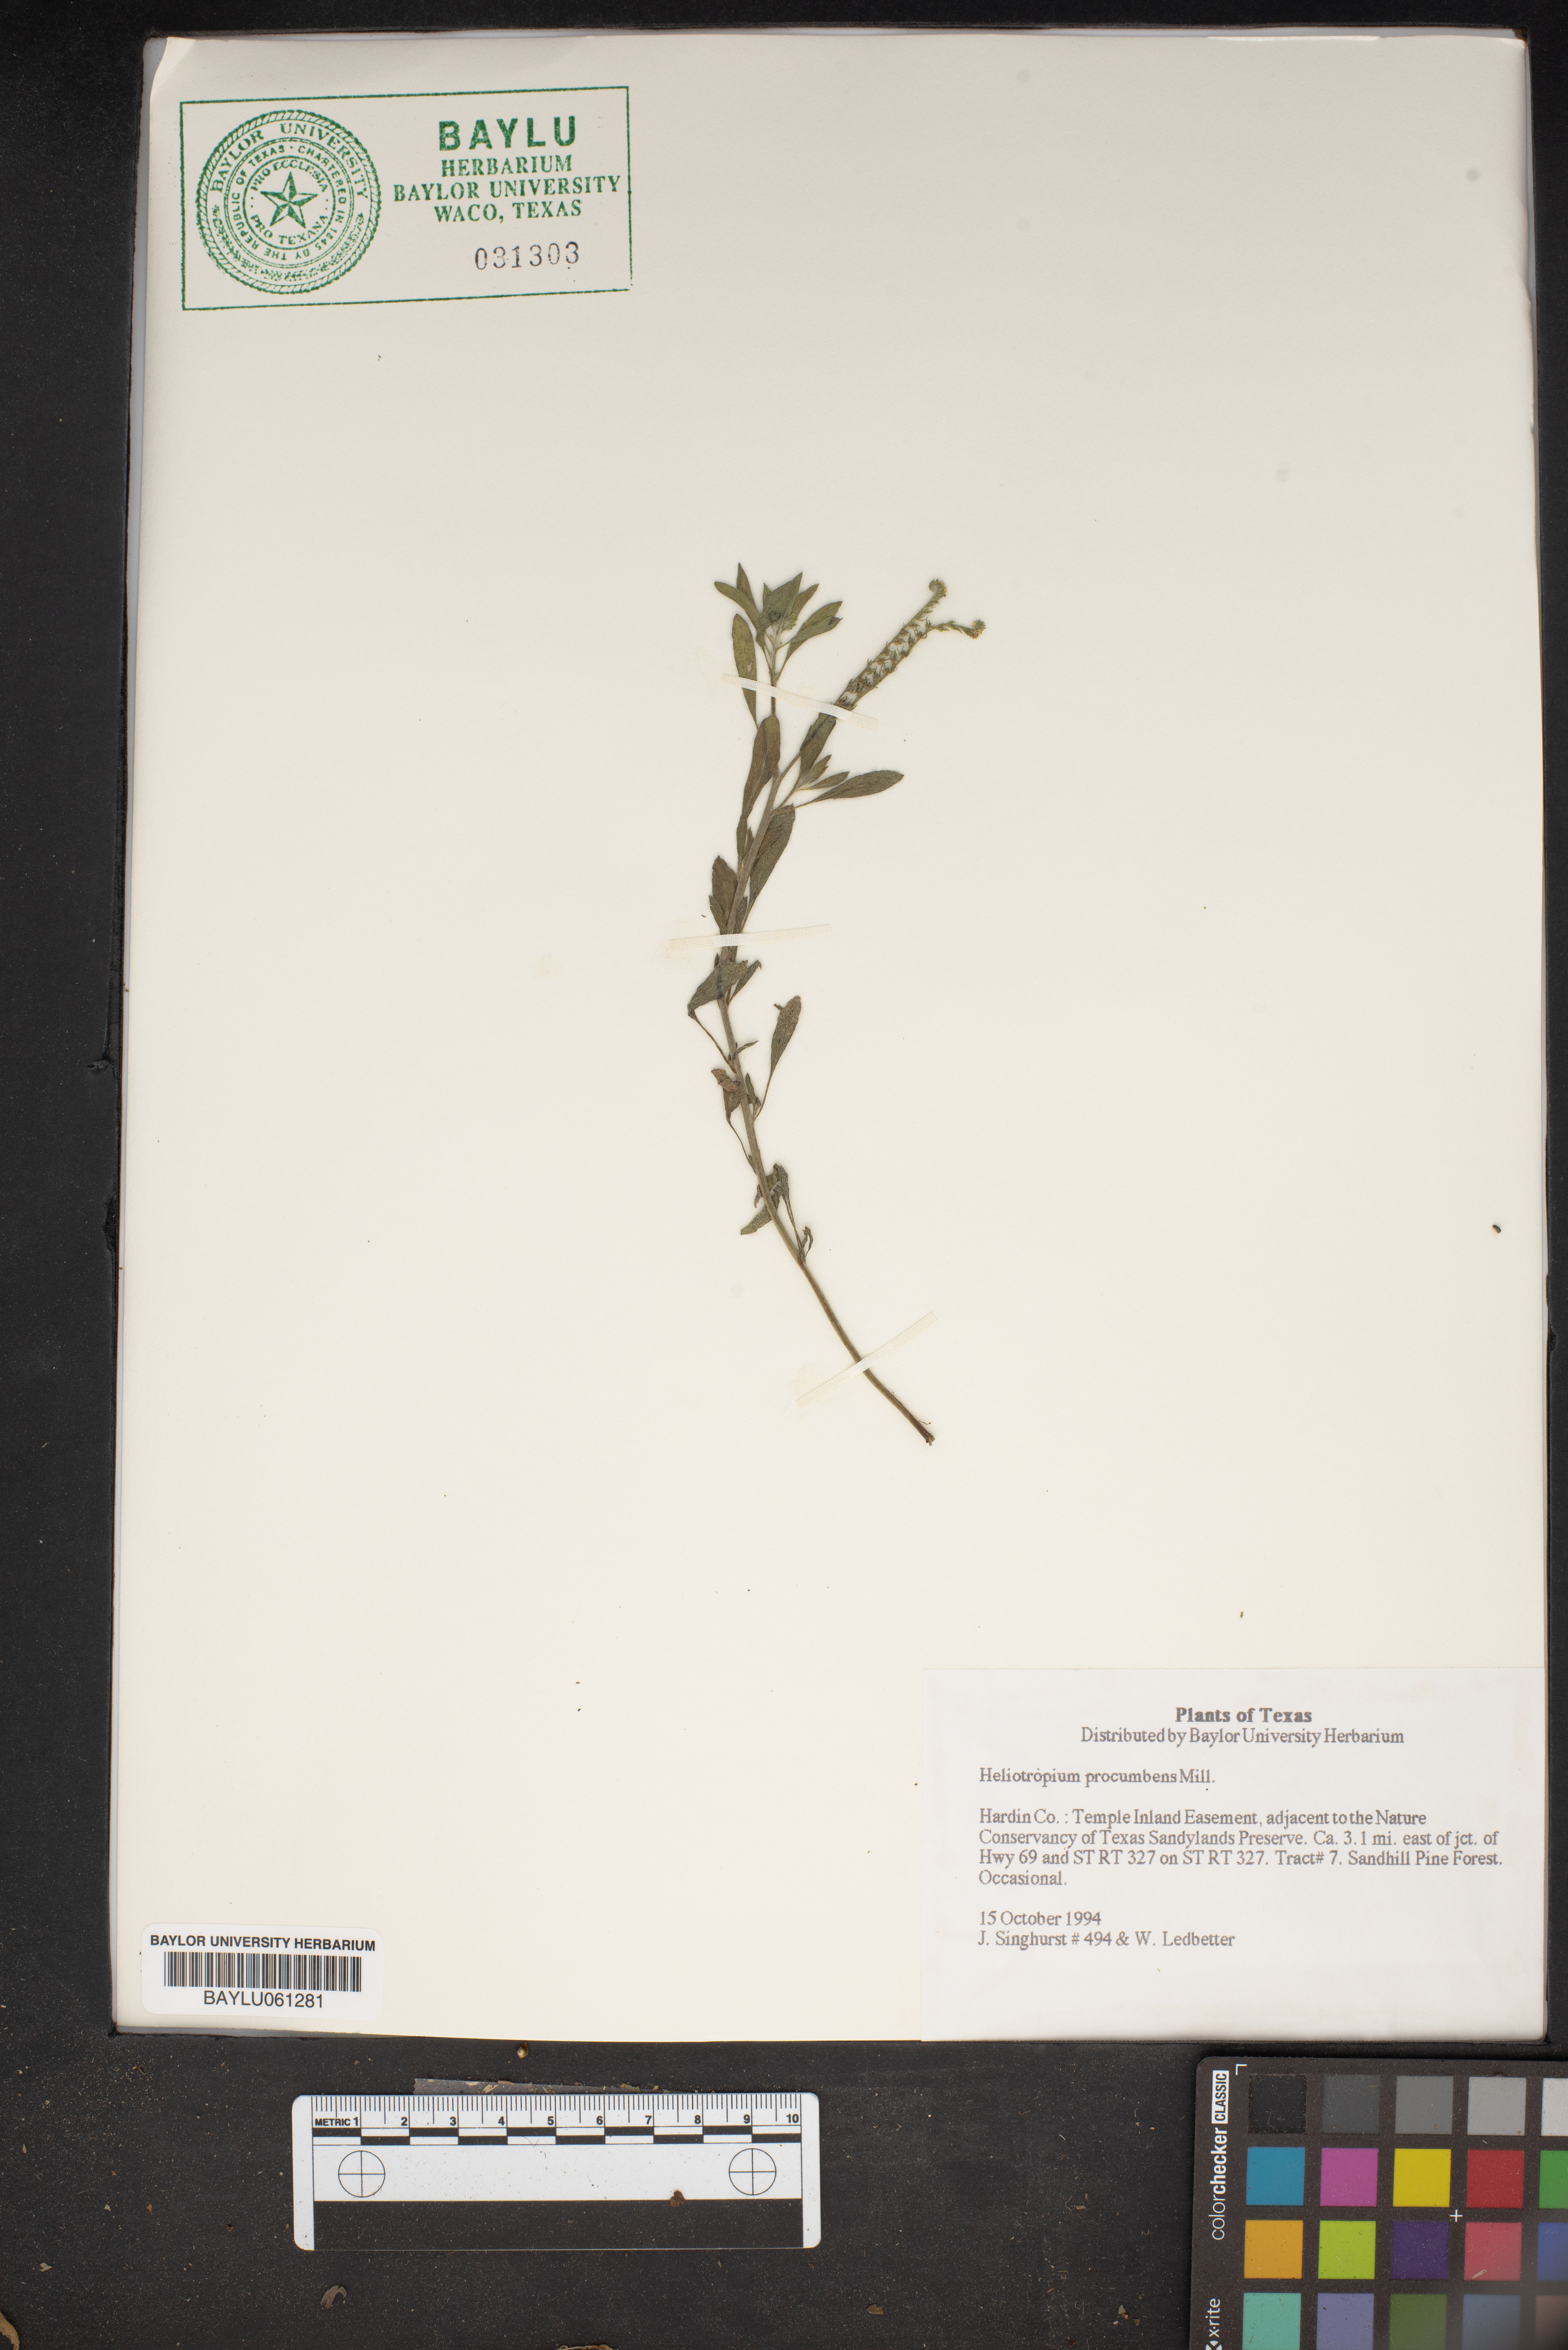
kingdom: Plantae
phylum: Tracheophyta
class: Magnoliopsida
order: Boraginales
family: Heliotropiaceae
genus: Euploca
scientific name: Euploca procumbens
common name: Fourspike heliotrope
